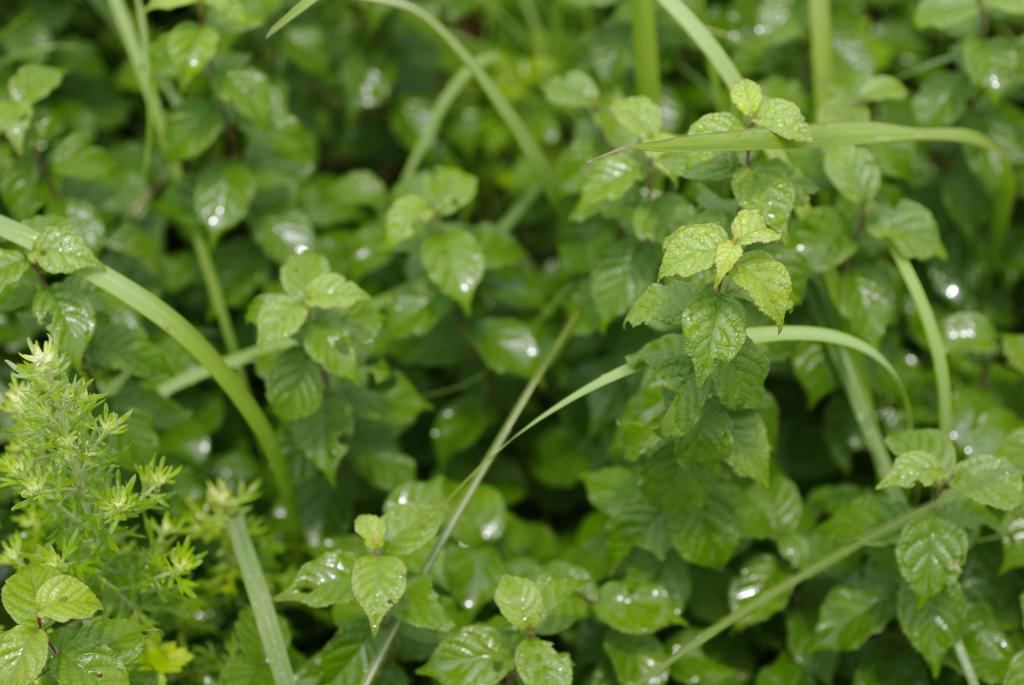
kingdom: Plantae
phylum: Tracheophyta
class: Magnoliopsida
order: Rosales
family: Rosaceae
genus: Prunus
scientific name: Prunus japonica
